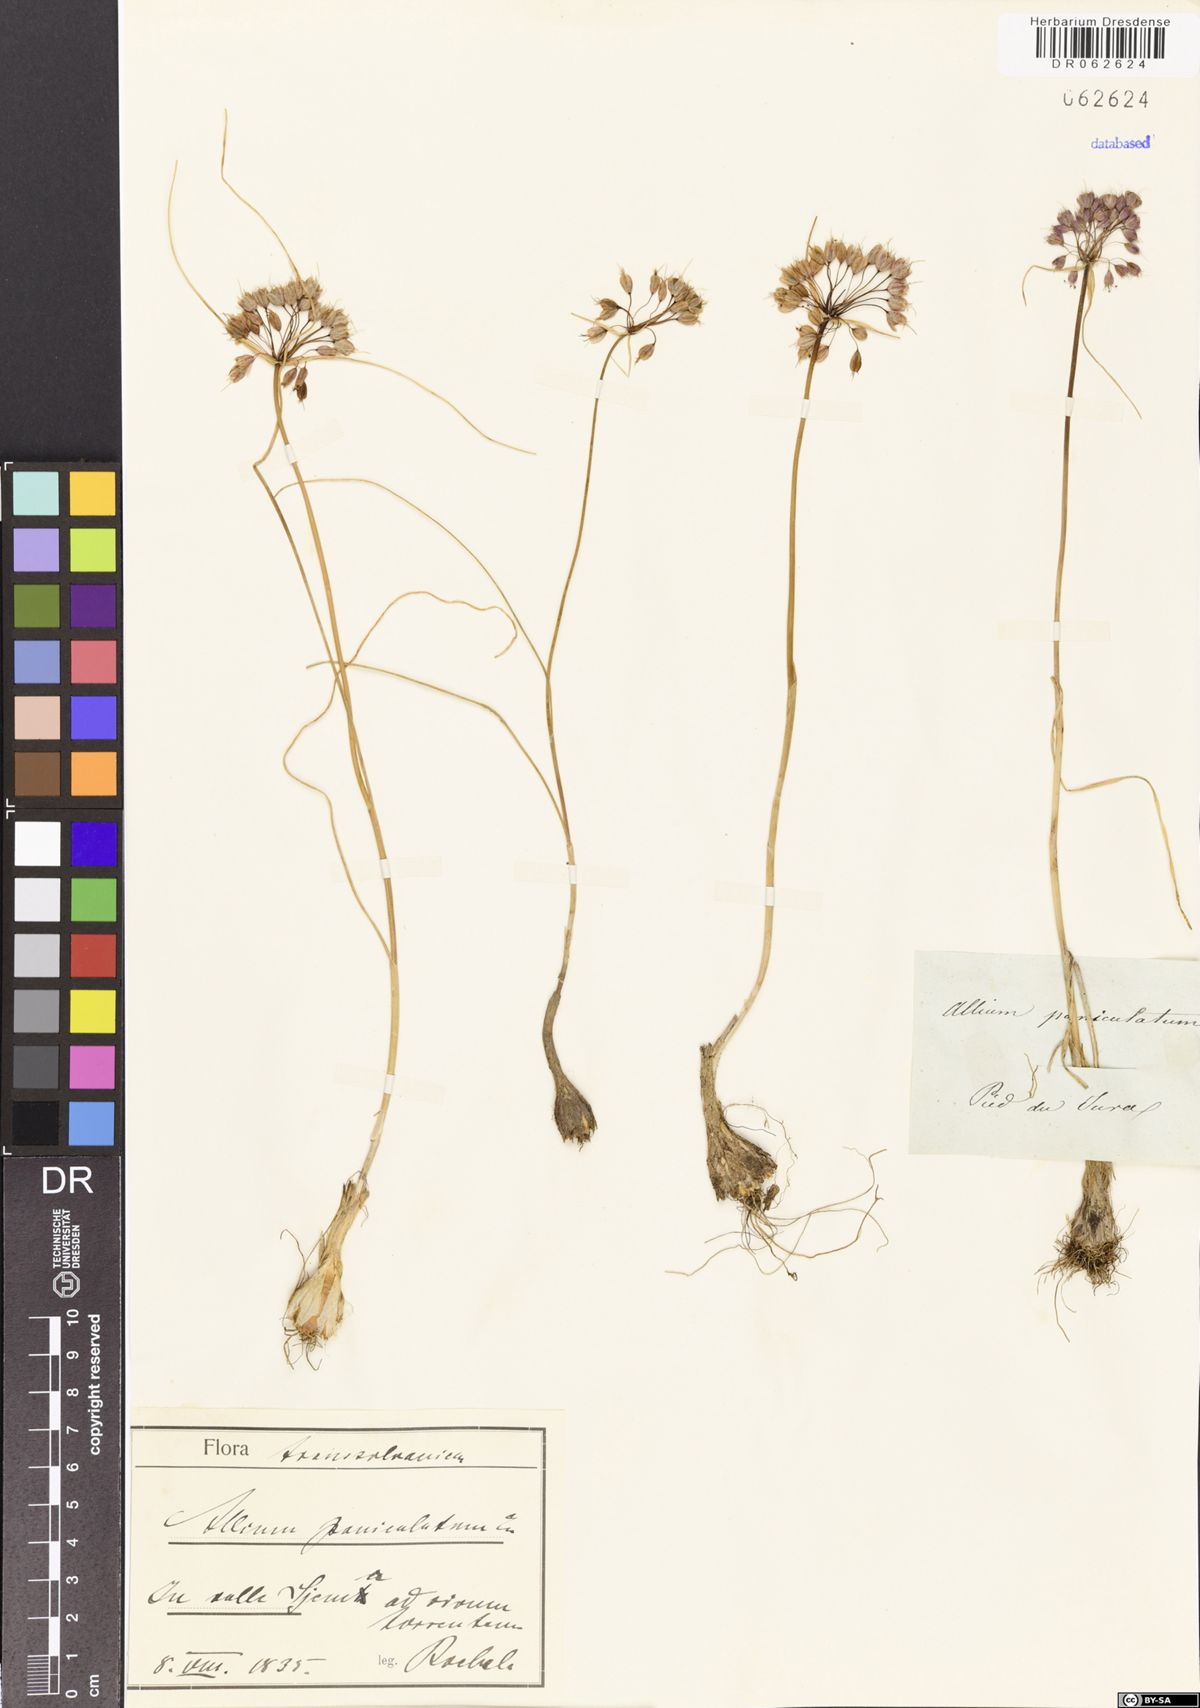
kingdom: Plantae
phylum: Tracheophyta
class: Liliopsida
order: Asparagales
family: Amaryllidaceae
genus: Allium
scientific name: Allium paniculatum
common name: Pale garlic
